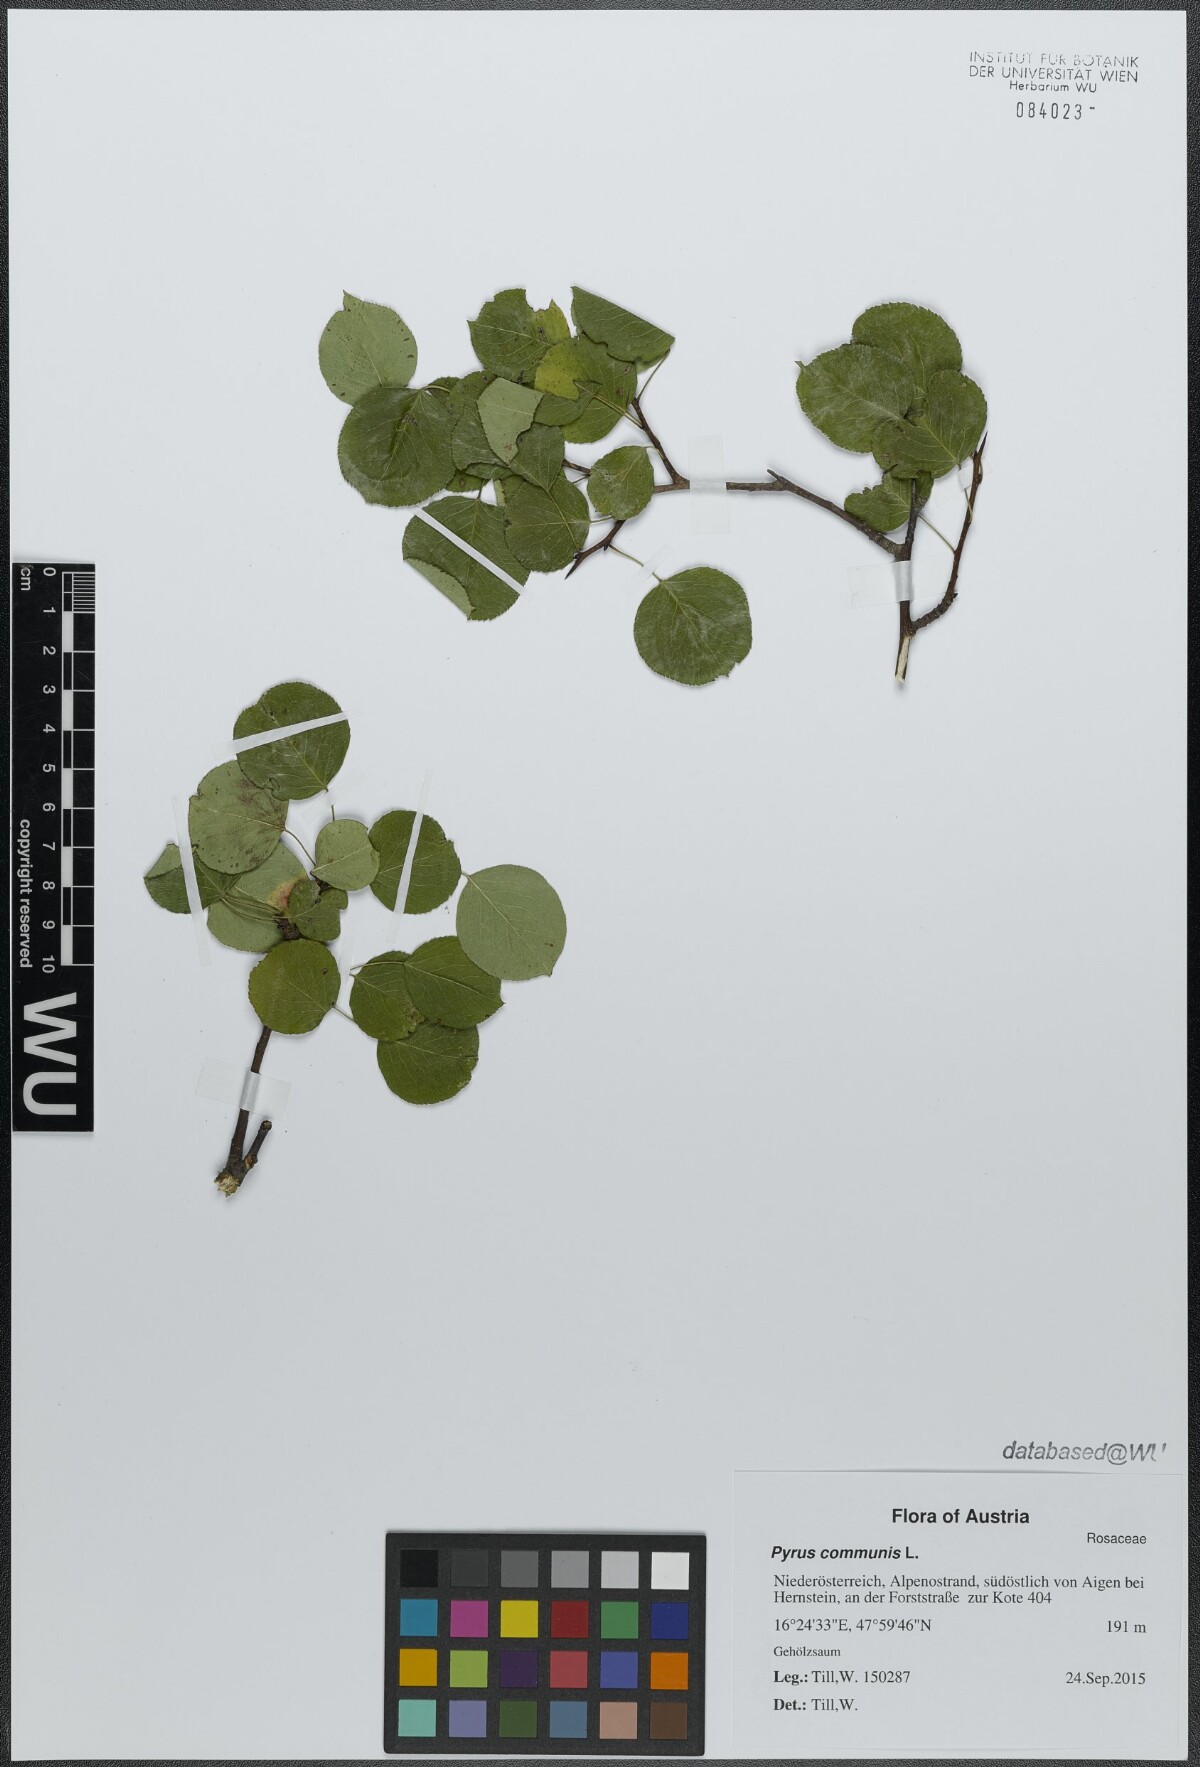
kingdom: Plantae
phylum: Tracheophyta
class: Magnoliopsida
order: Rosales
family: Rosaceae
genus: Pyrus
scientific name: Pyrus communis
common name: Pear
